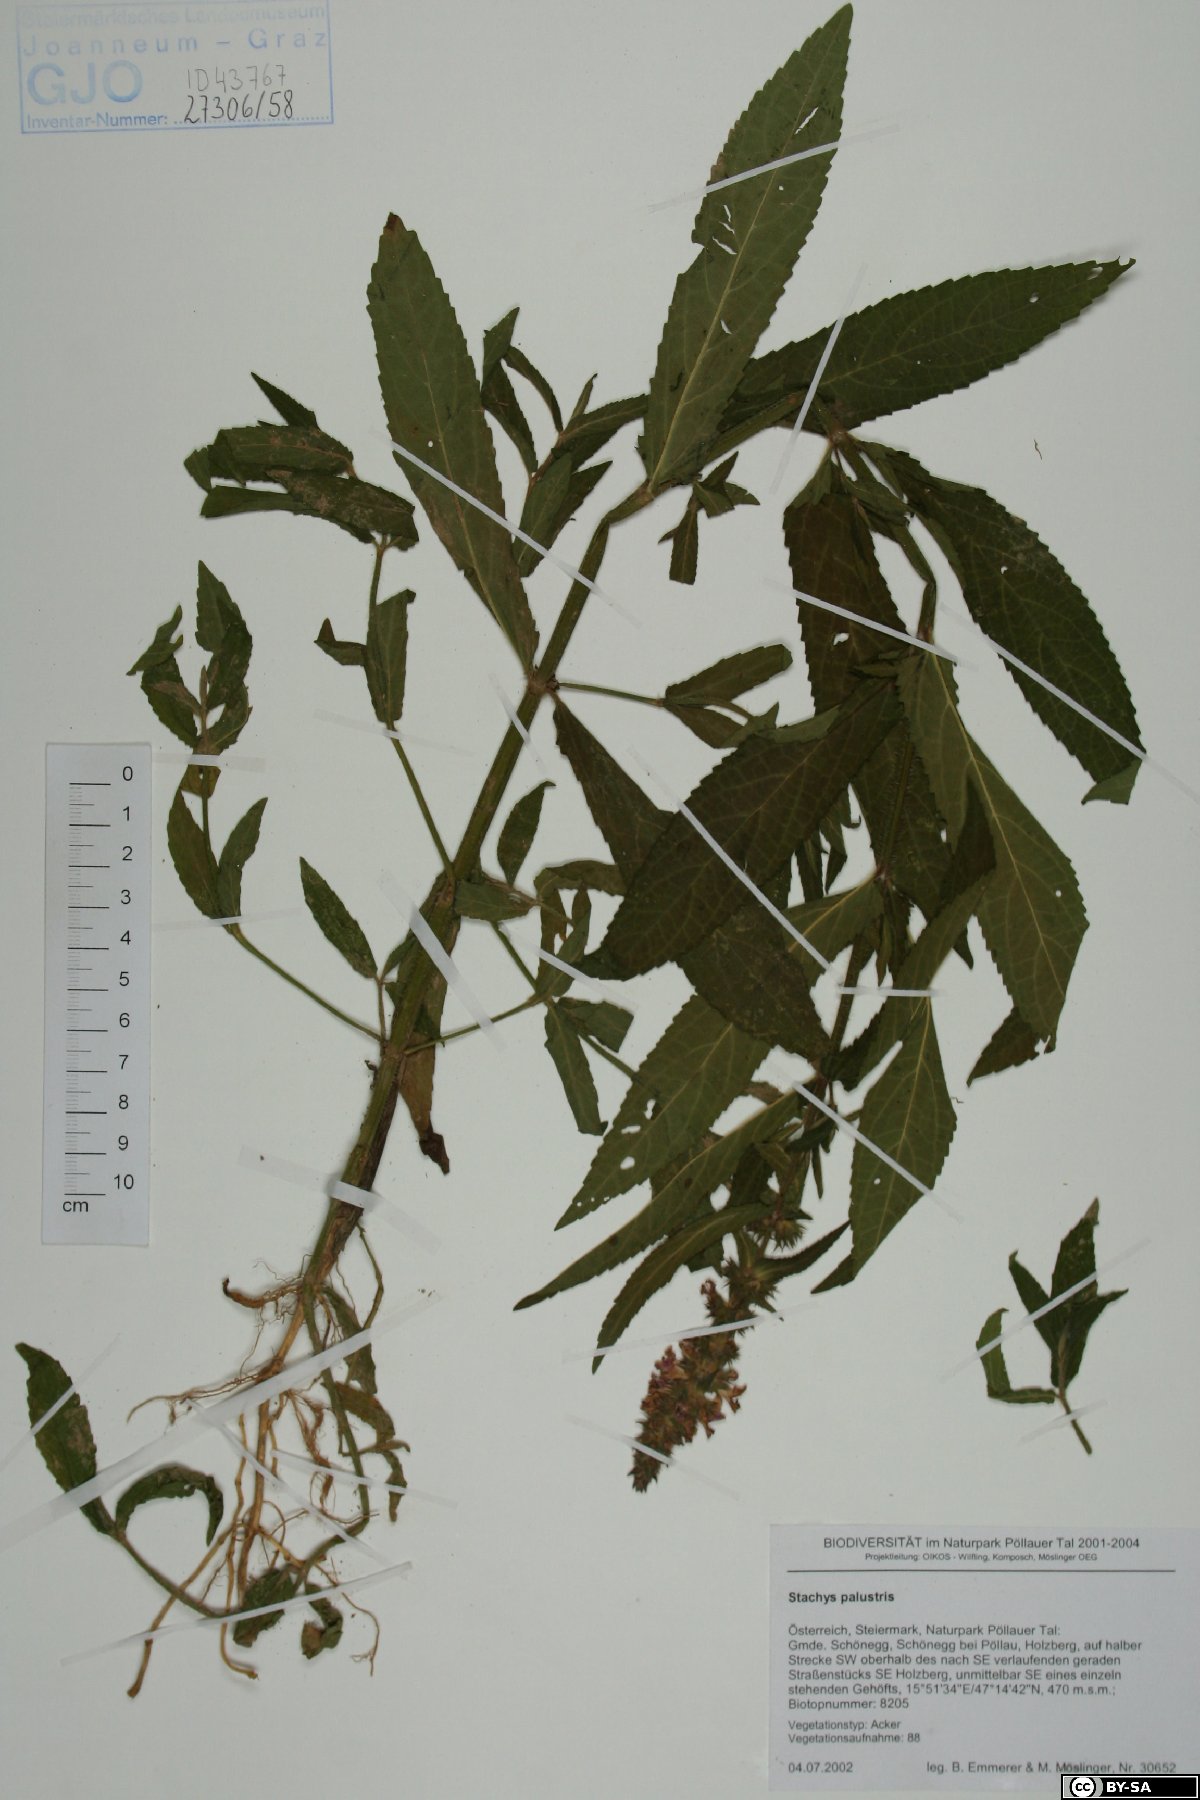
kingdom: Plantae
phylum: Tracheophyta
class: Magnoliopsida
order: Lamiales
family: Lamiaceae
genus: Stachys
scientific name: Stachys palustris
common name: Marsh woundwort
